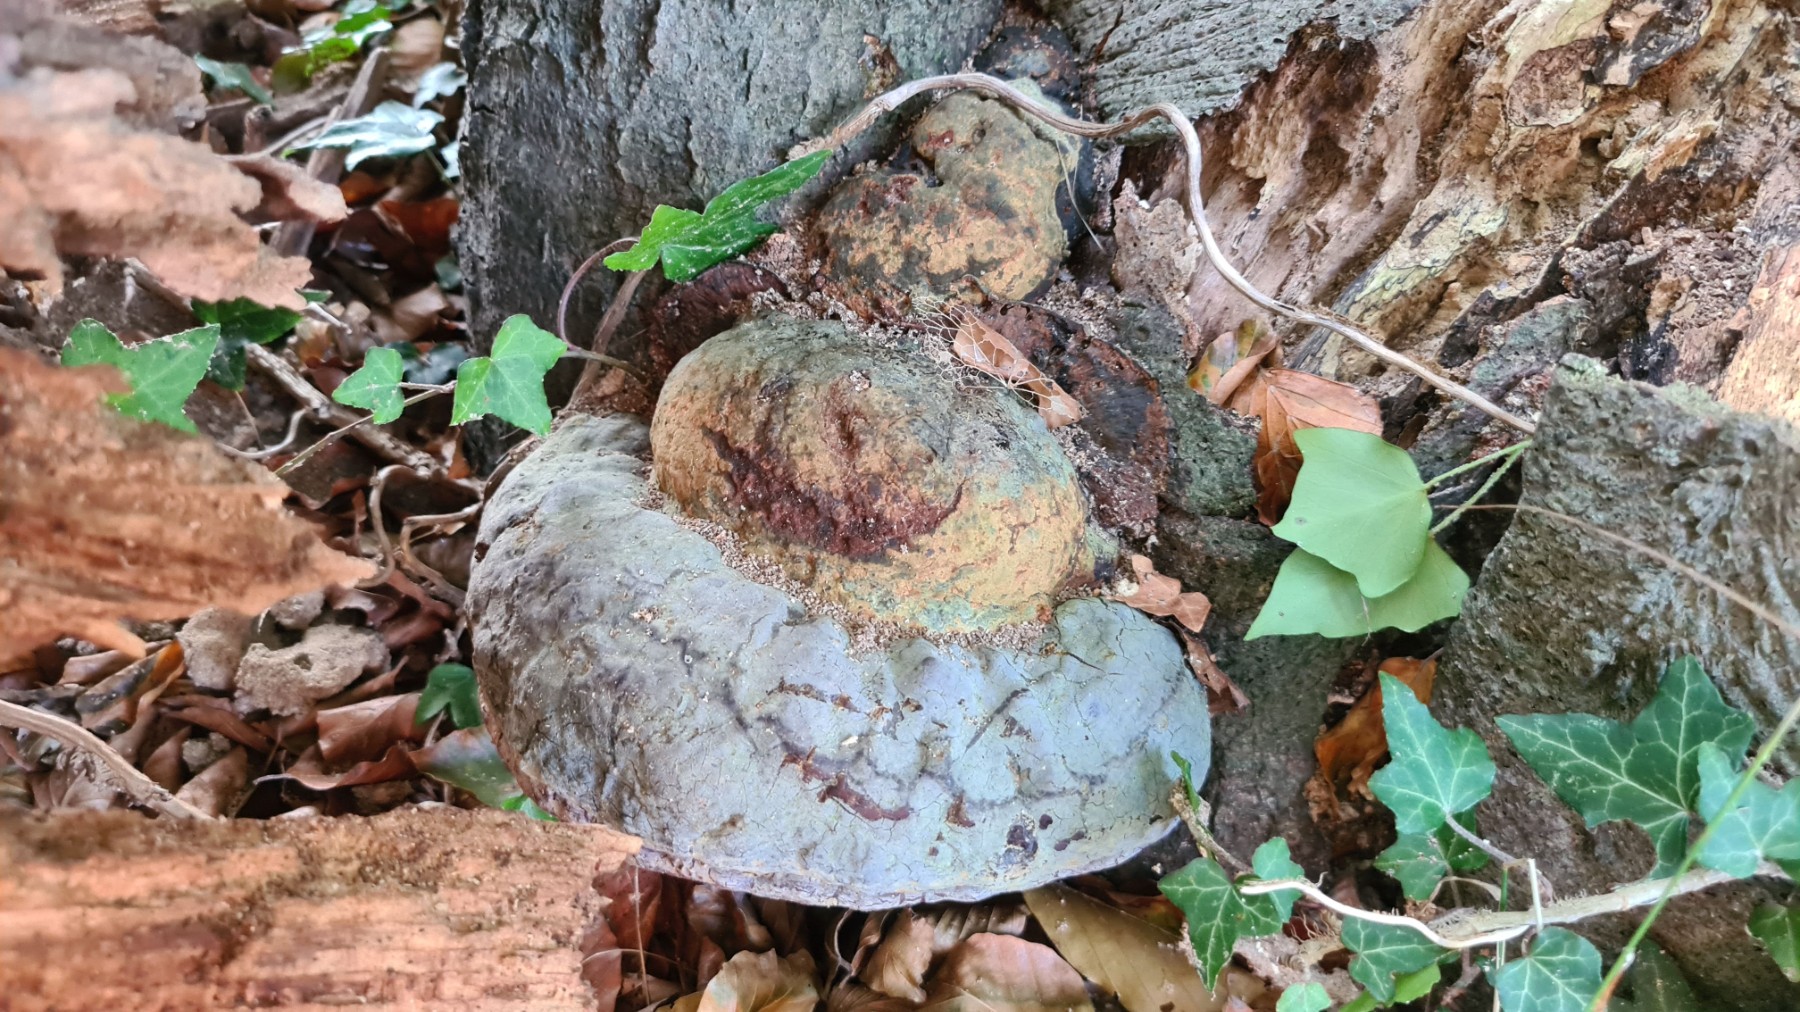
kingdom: Fungi
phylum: Basidiomycota
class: Agaricomycetes
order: Polyporales
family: Polyporaceae
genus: Ganoderma
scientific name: Ganoderma pfeifferi
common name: kobberrød lakporesvamp
